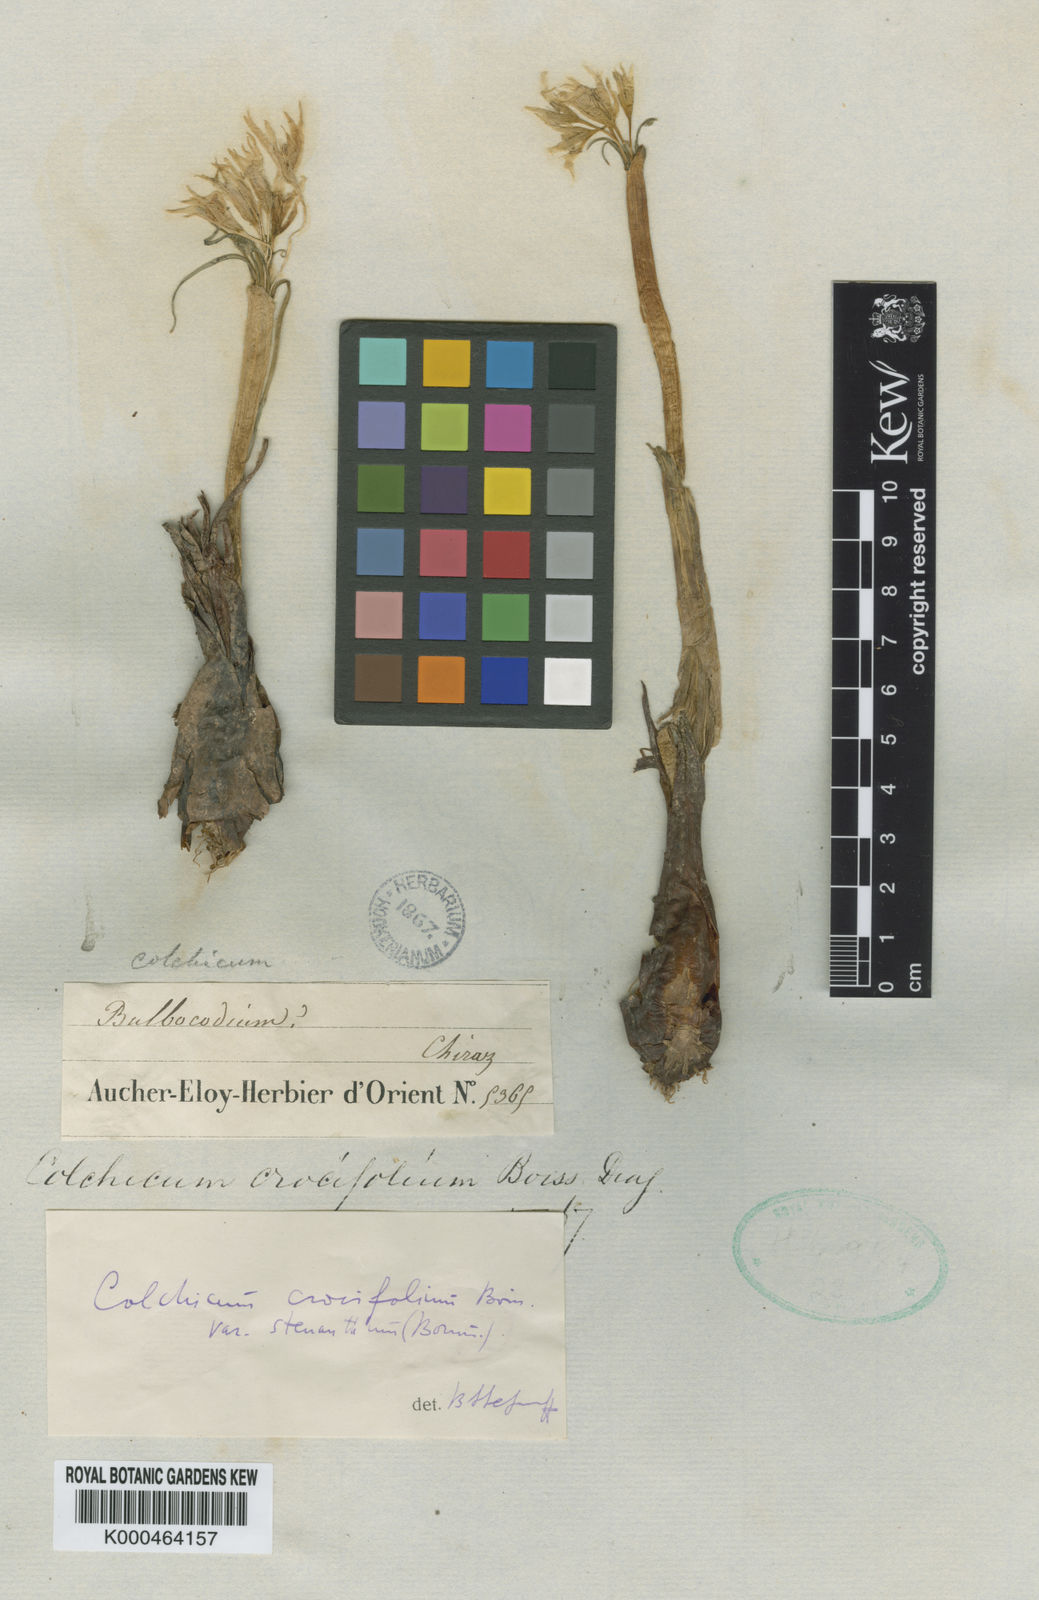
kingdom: Plantae
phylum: Tracheophyta
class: Liliopsida
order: Liliales
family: Colchicaceae
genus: Colchicum
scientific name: Colchicum crocifolium
